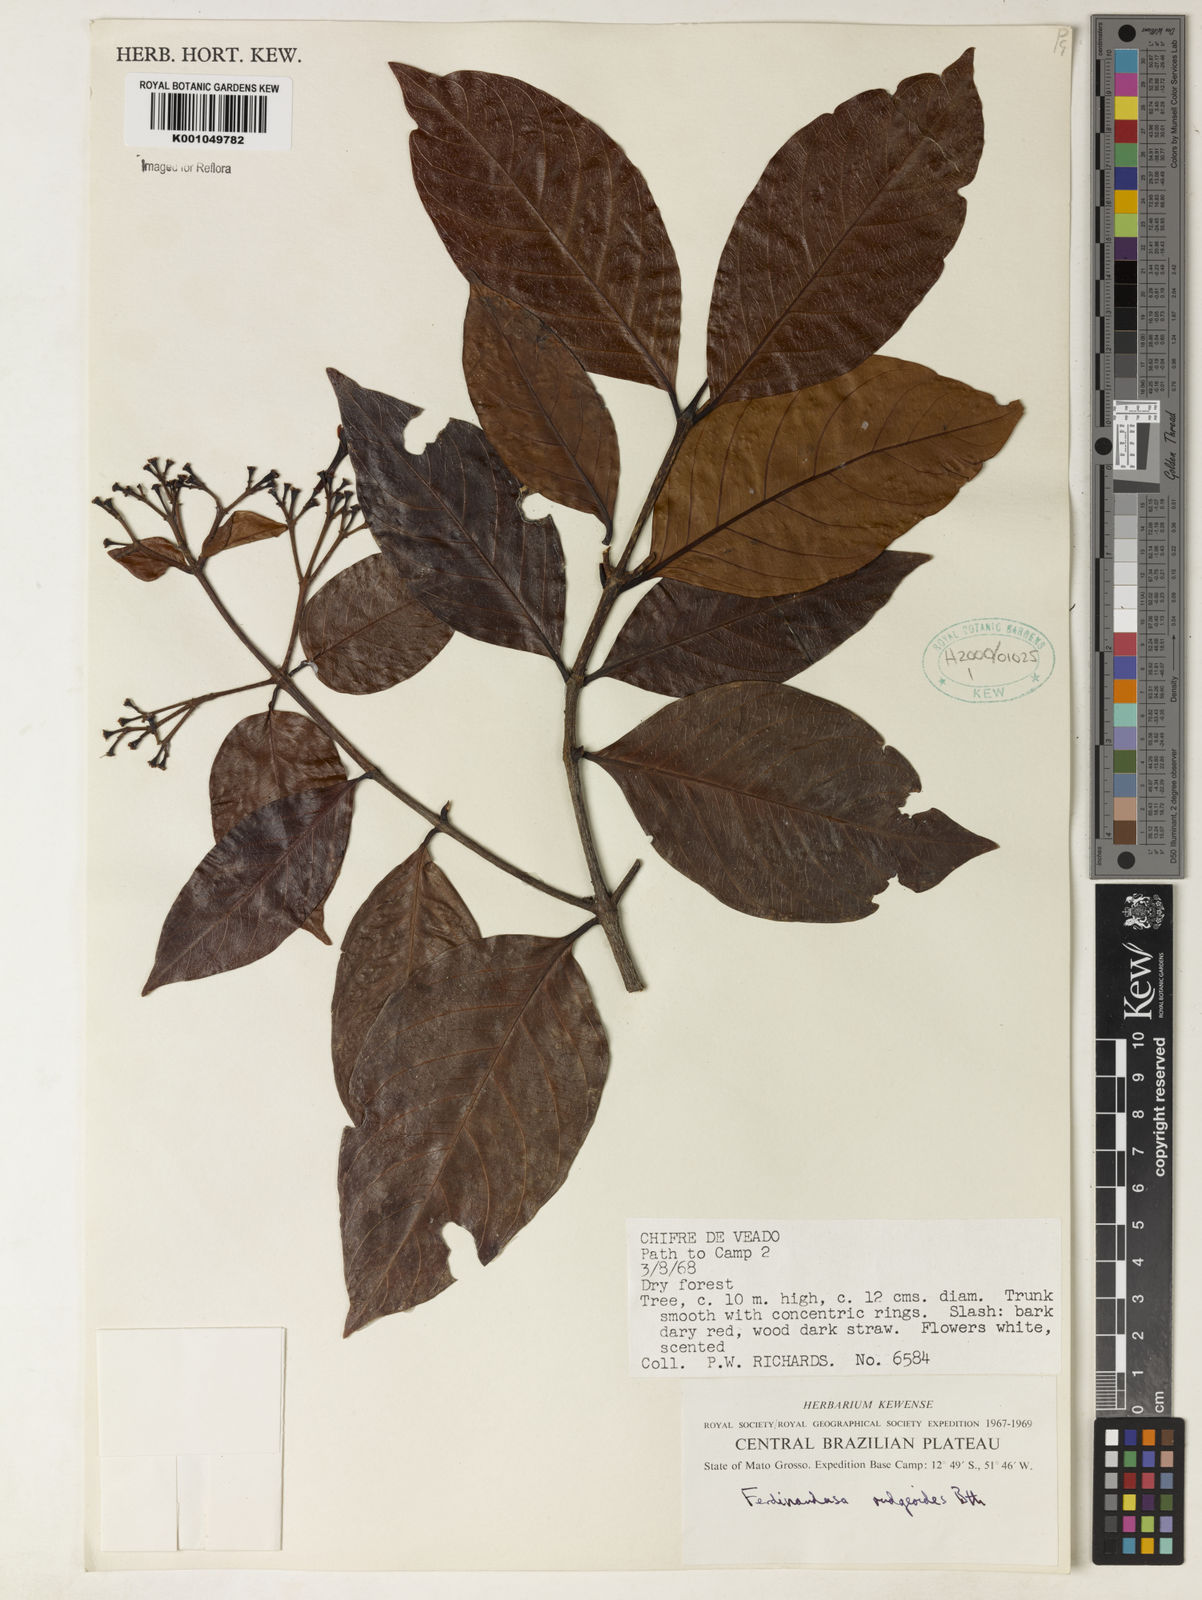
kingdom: Plantae
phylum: Tracheophyta
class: Magnoliopsida
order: Gentianales
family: Rubiaceae
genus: Ferdinandusa
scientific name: Ferdinandusa rudgeoides
